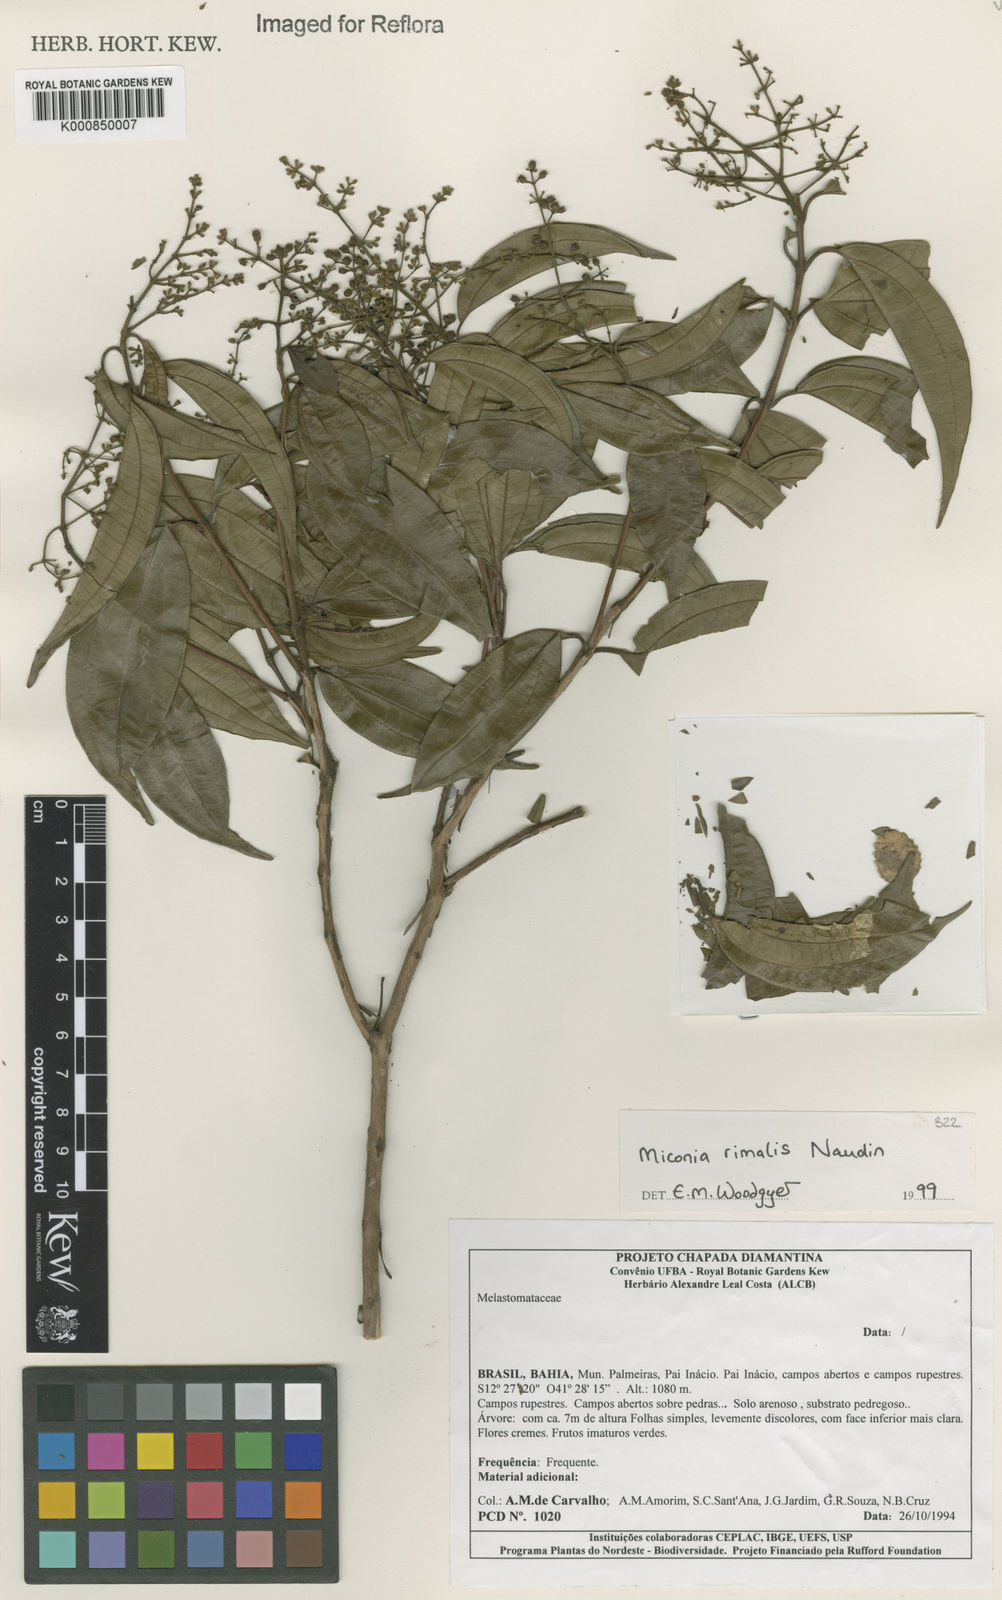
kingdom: Plantae
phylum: Tracheophyta
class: Magnoliopsida
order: Myrtales
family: Melastomataceae
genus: Miconia
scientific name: Miconia
